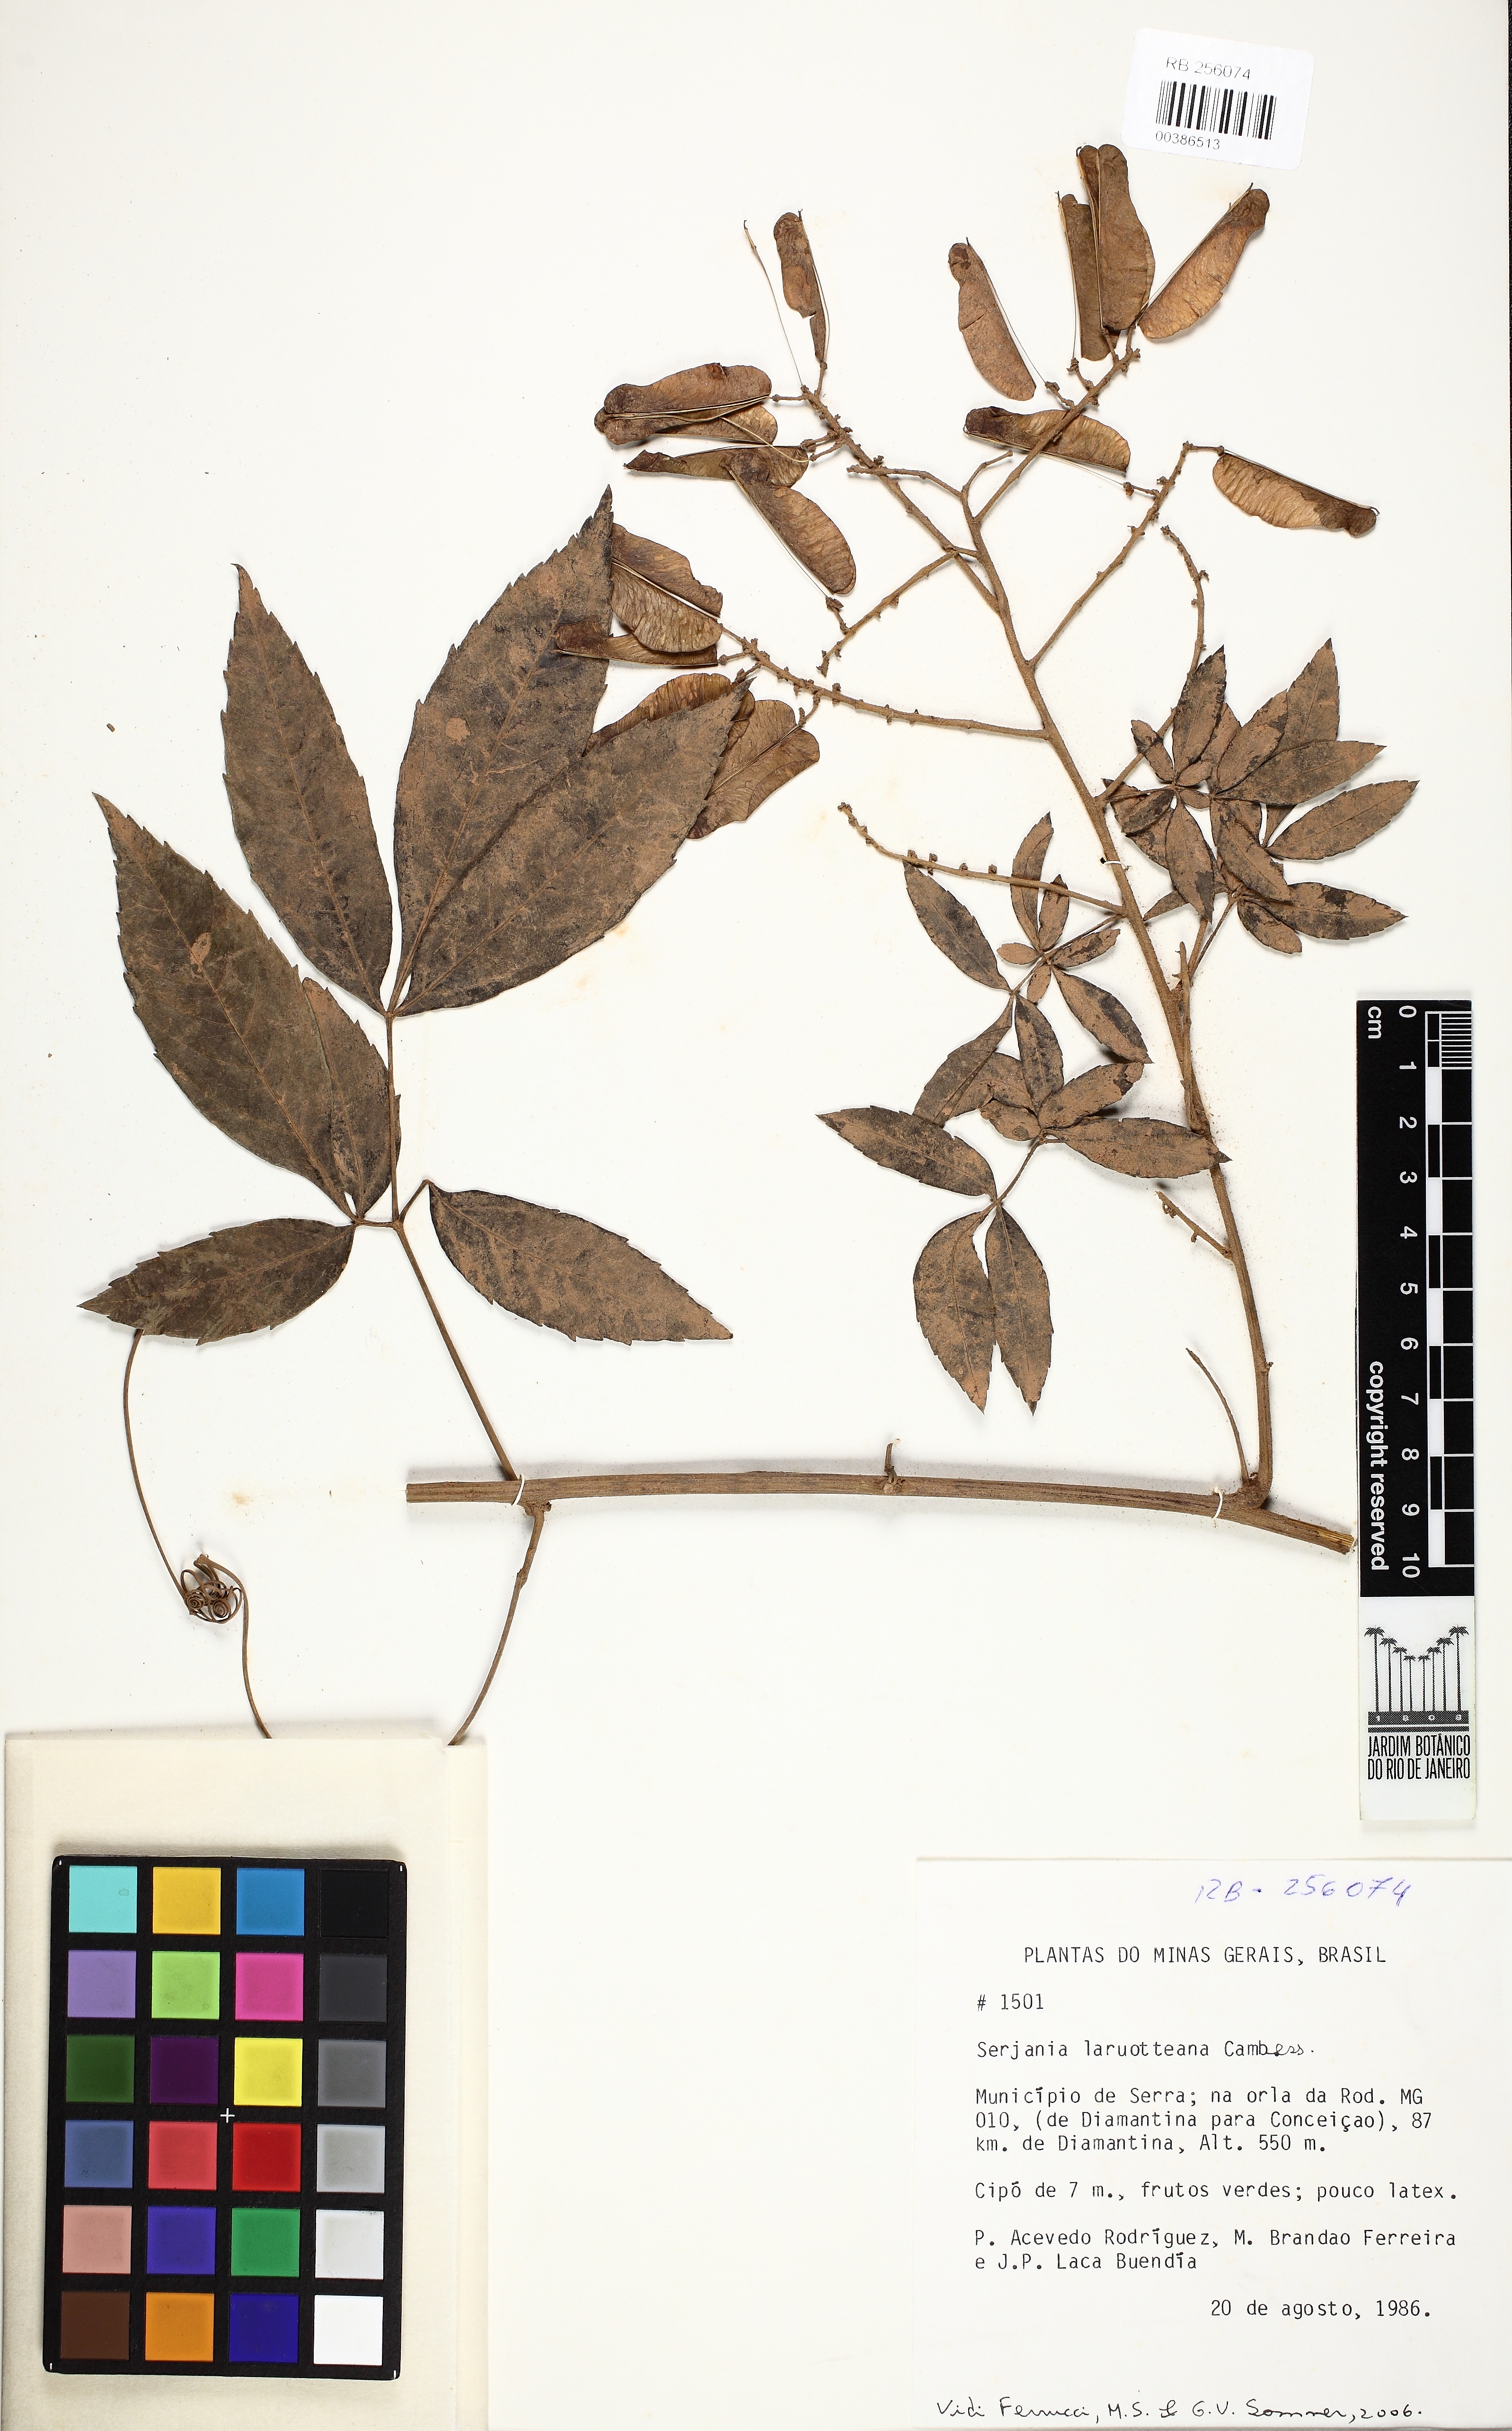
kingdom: Plantae
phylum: Tracheophyta
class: Magnoliopsida
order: Sapindales
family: Sapindaceae
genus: Serjania
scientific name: Serjania laruotteana
